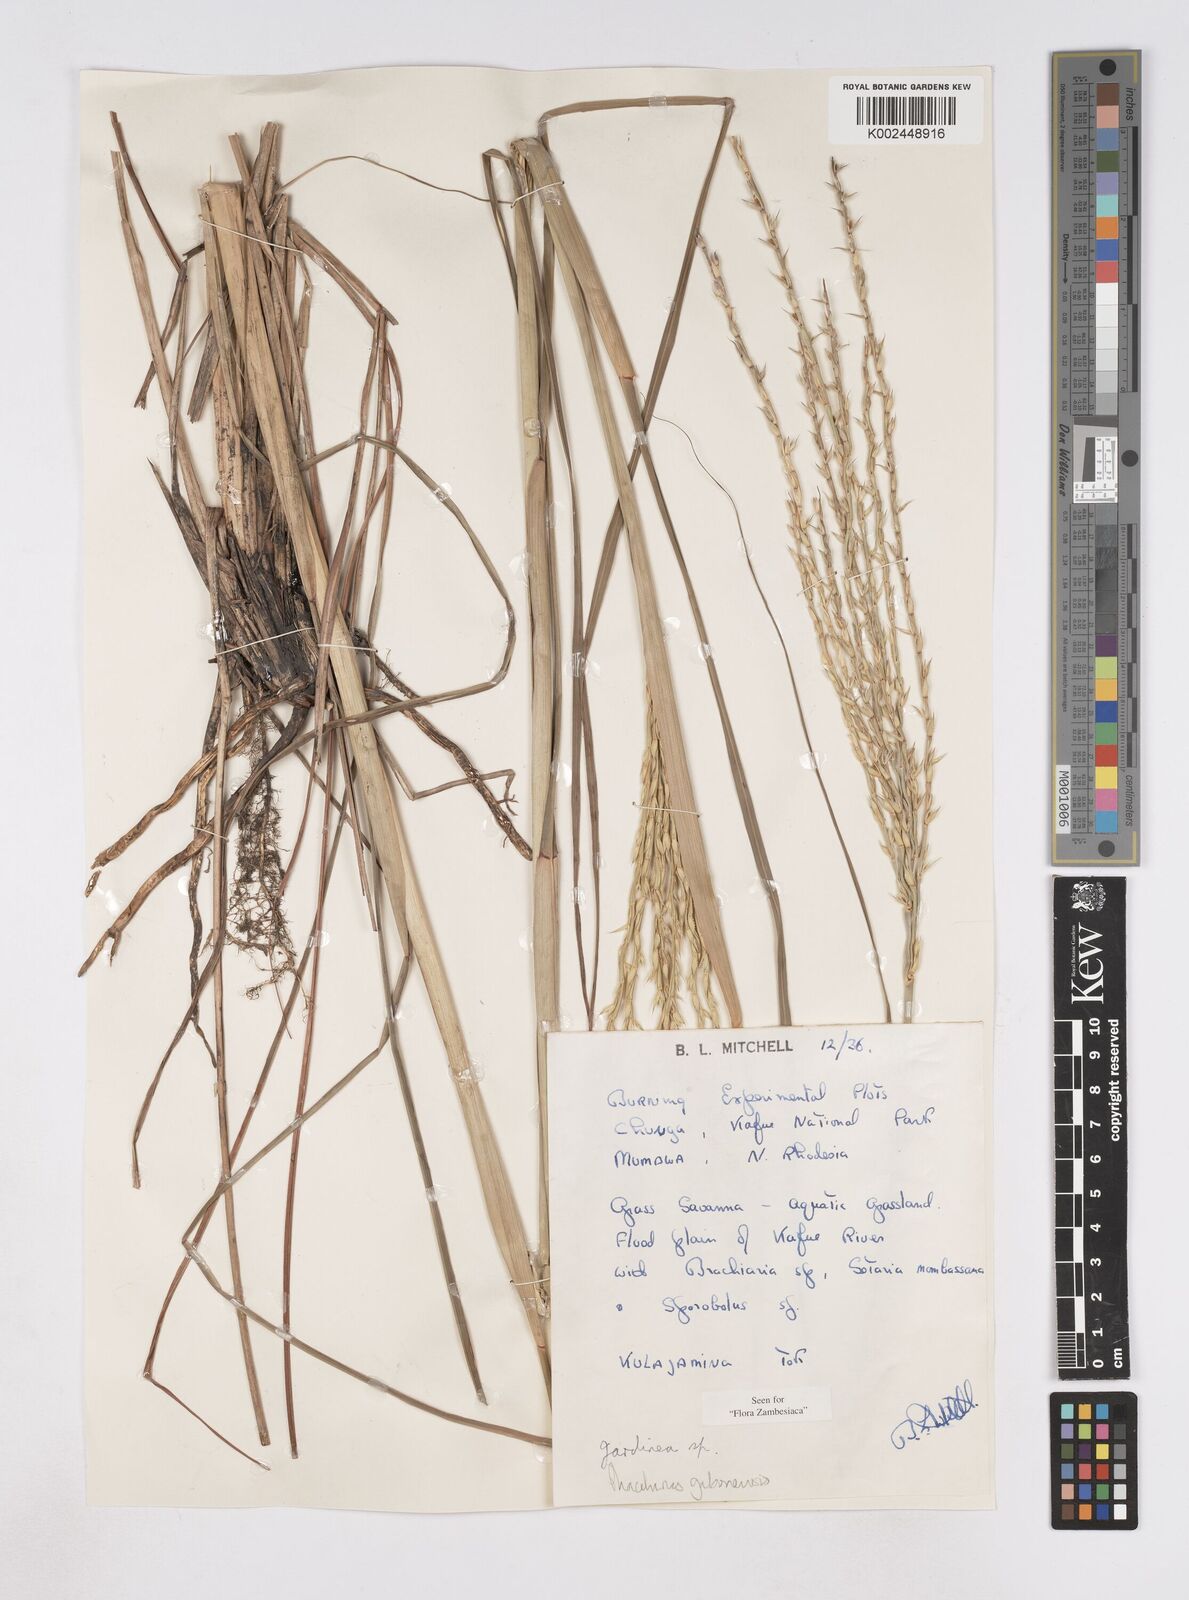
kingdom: Plantae
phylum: Tracheophyta
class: Liliopsida
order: Poales
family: Poaceae
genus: Phacelurus
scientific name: Phacelurus gabonensis
